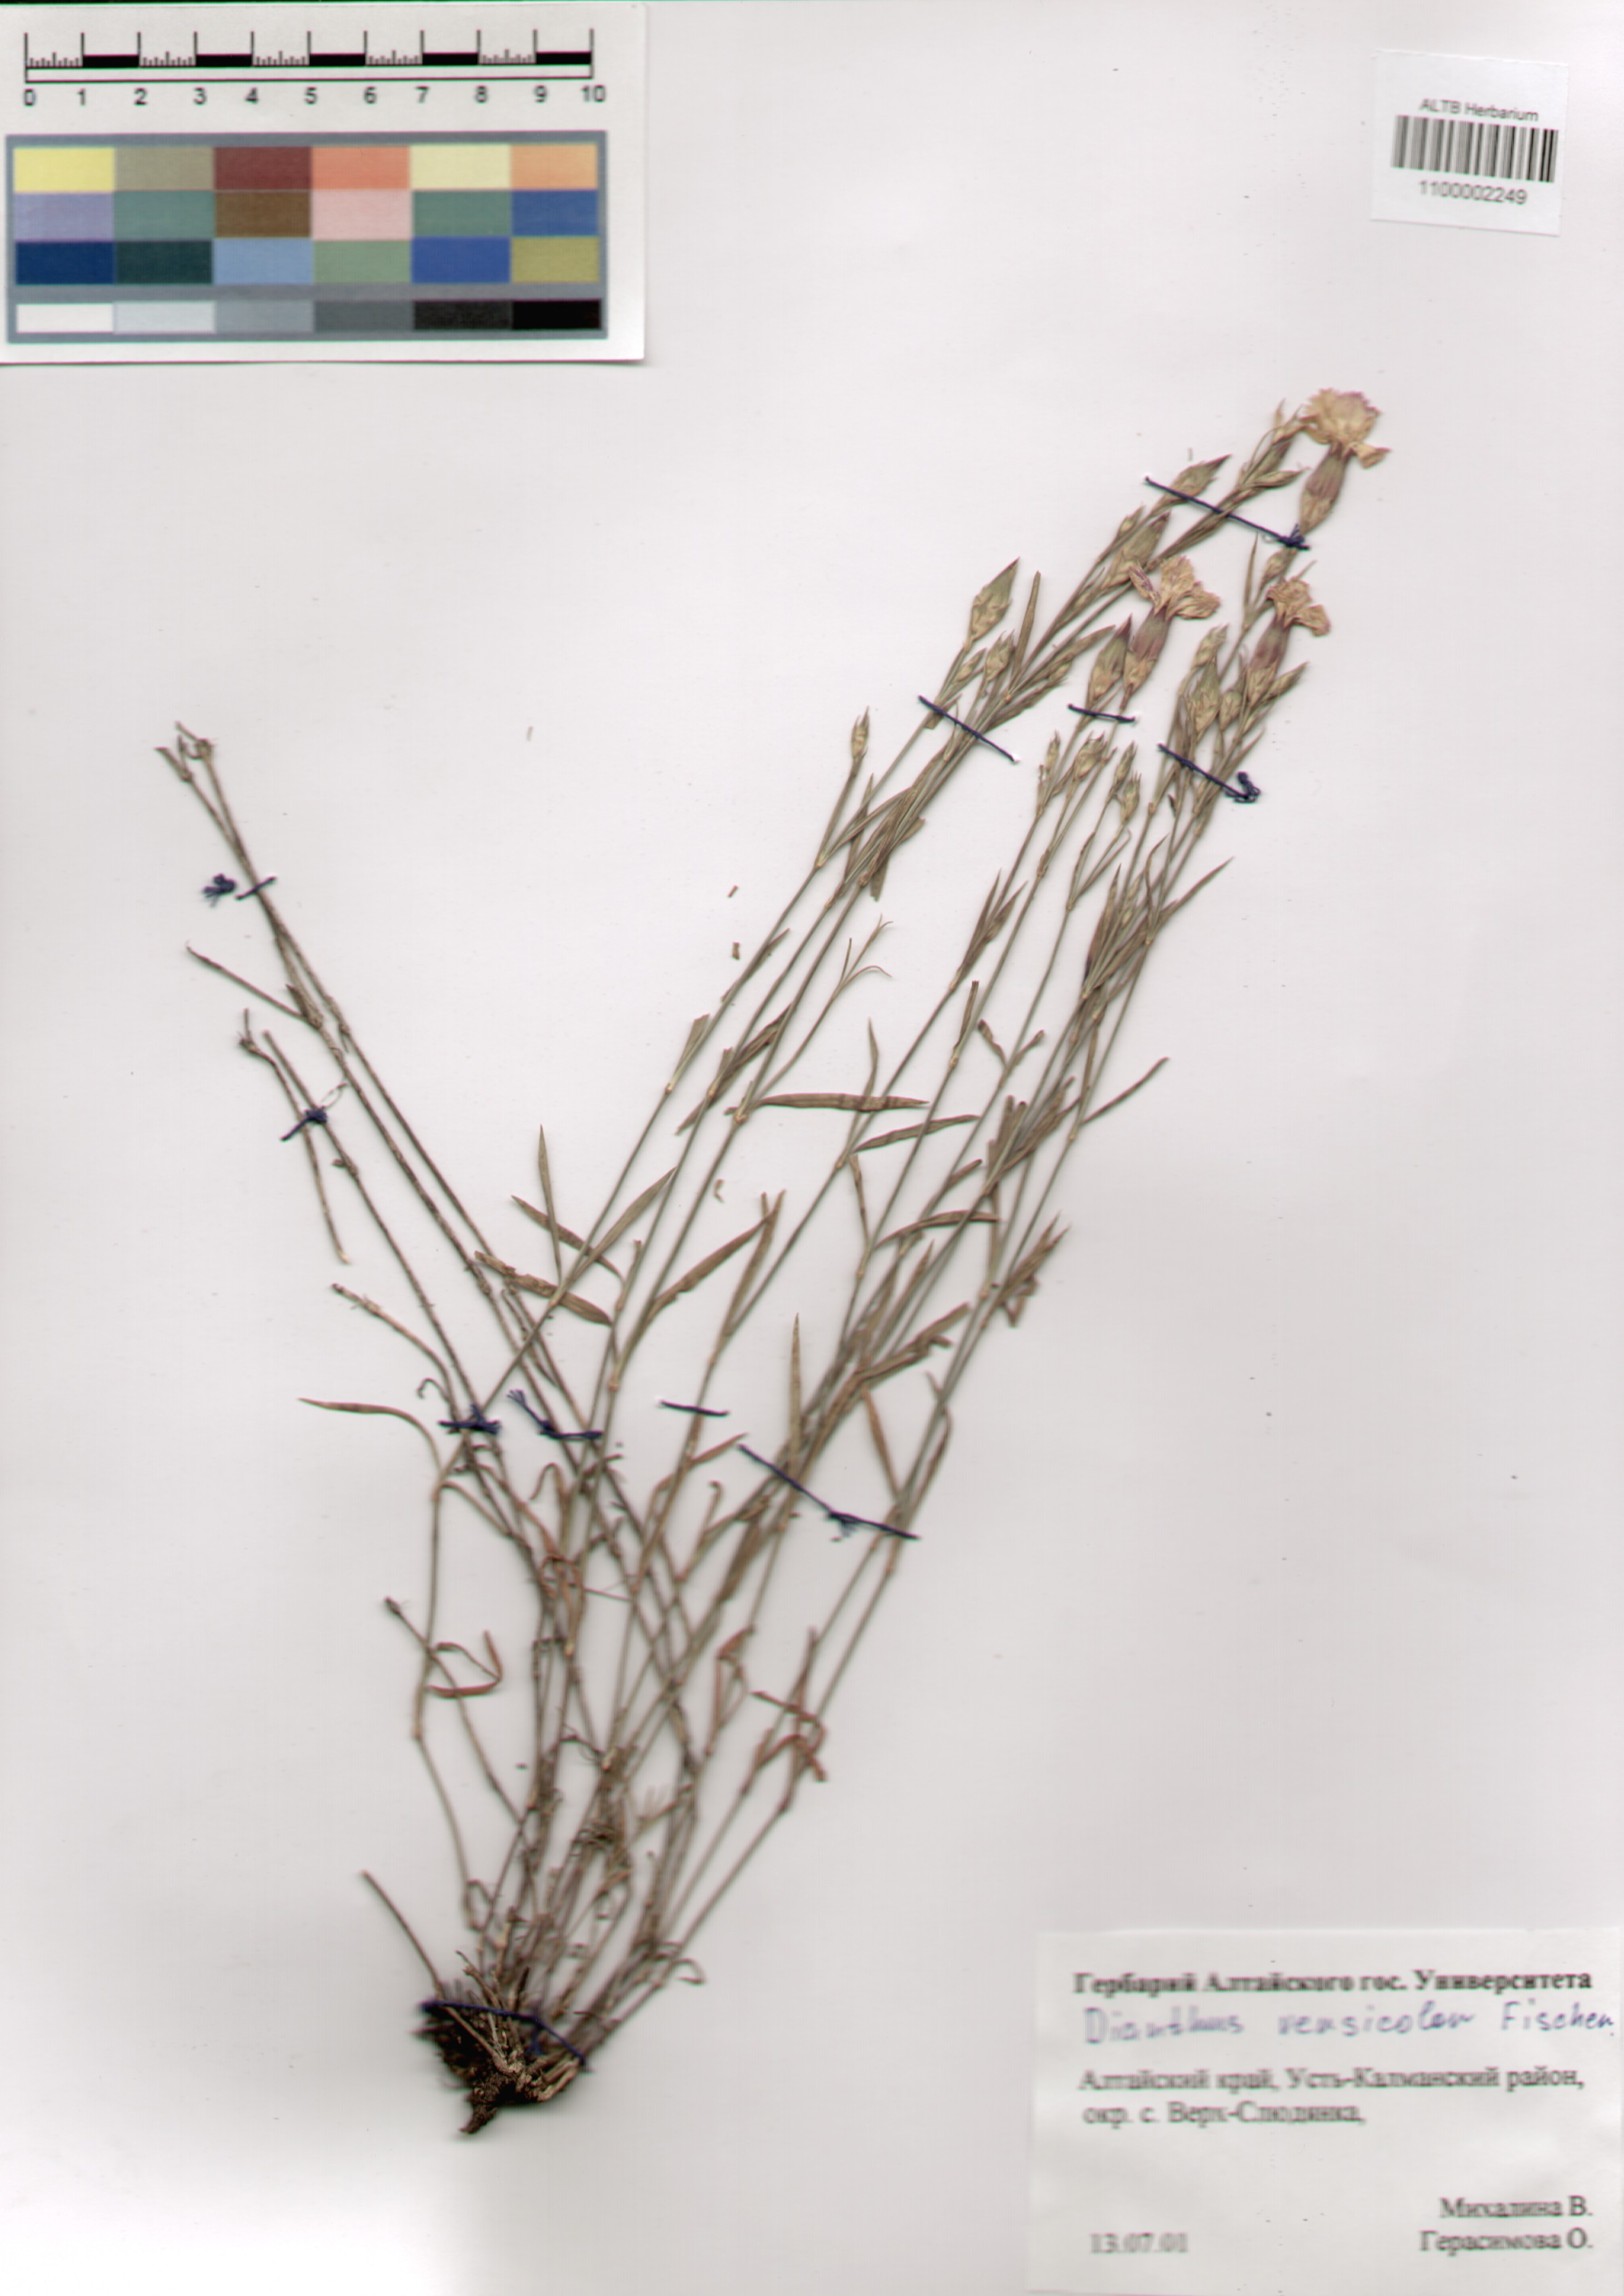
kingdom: Plantae
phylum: Tracheophyta
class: Magnoliopsida
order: Caryophyllales
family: Caryophyllaceae
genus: Dianthus
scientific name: Dianthus chinensis
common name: Rainbow pink
